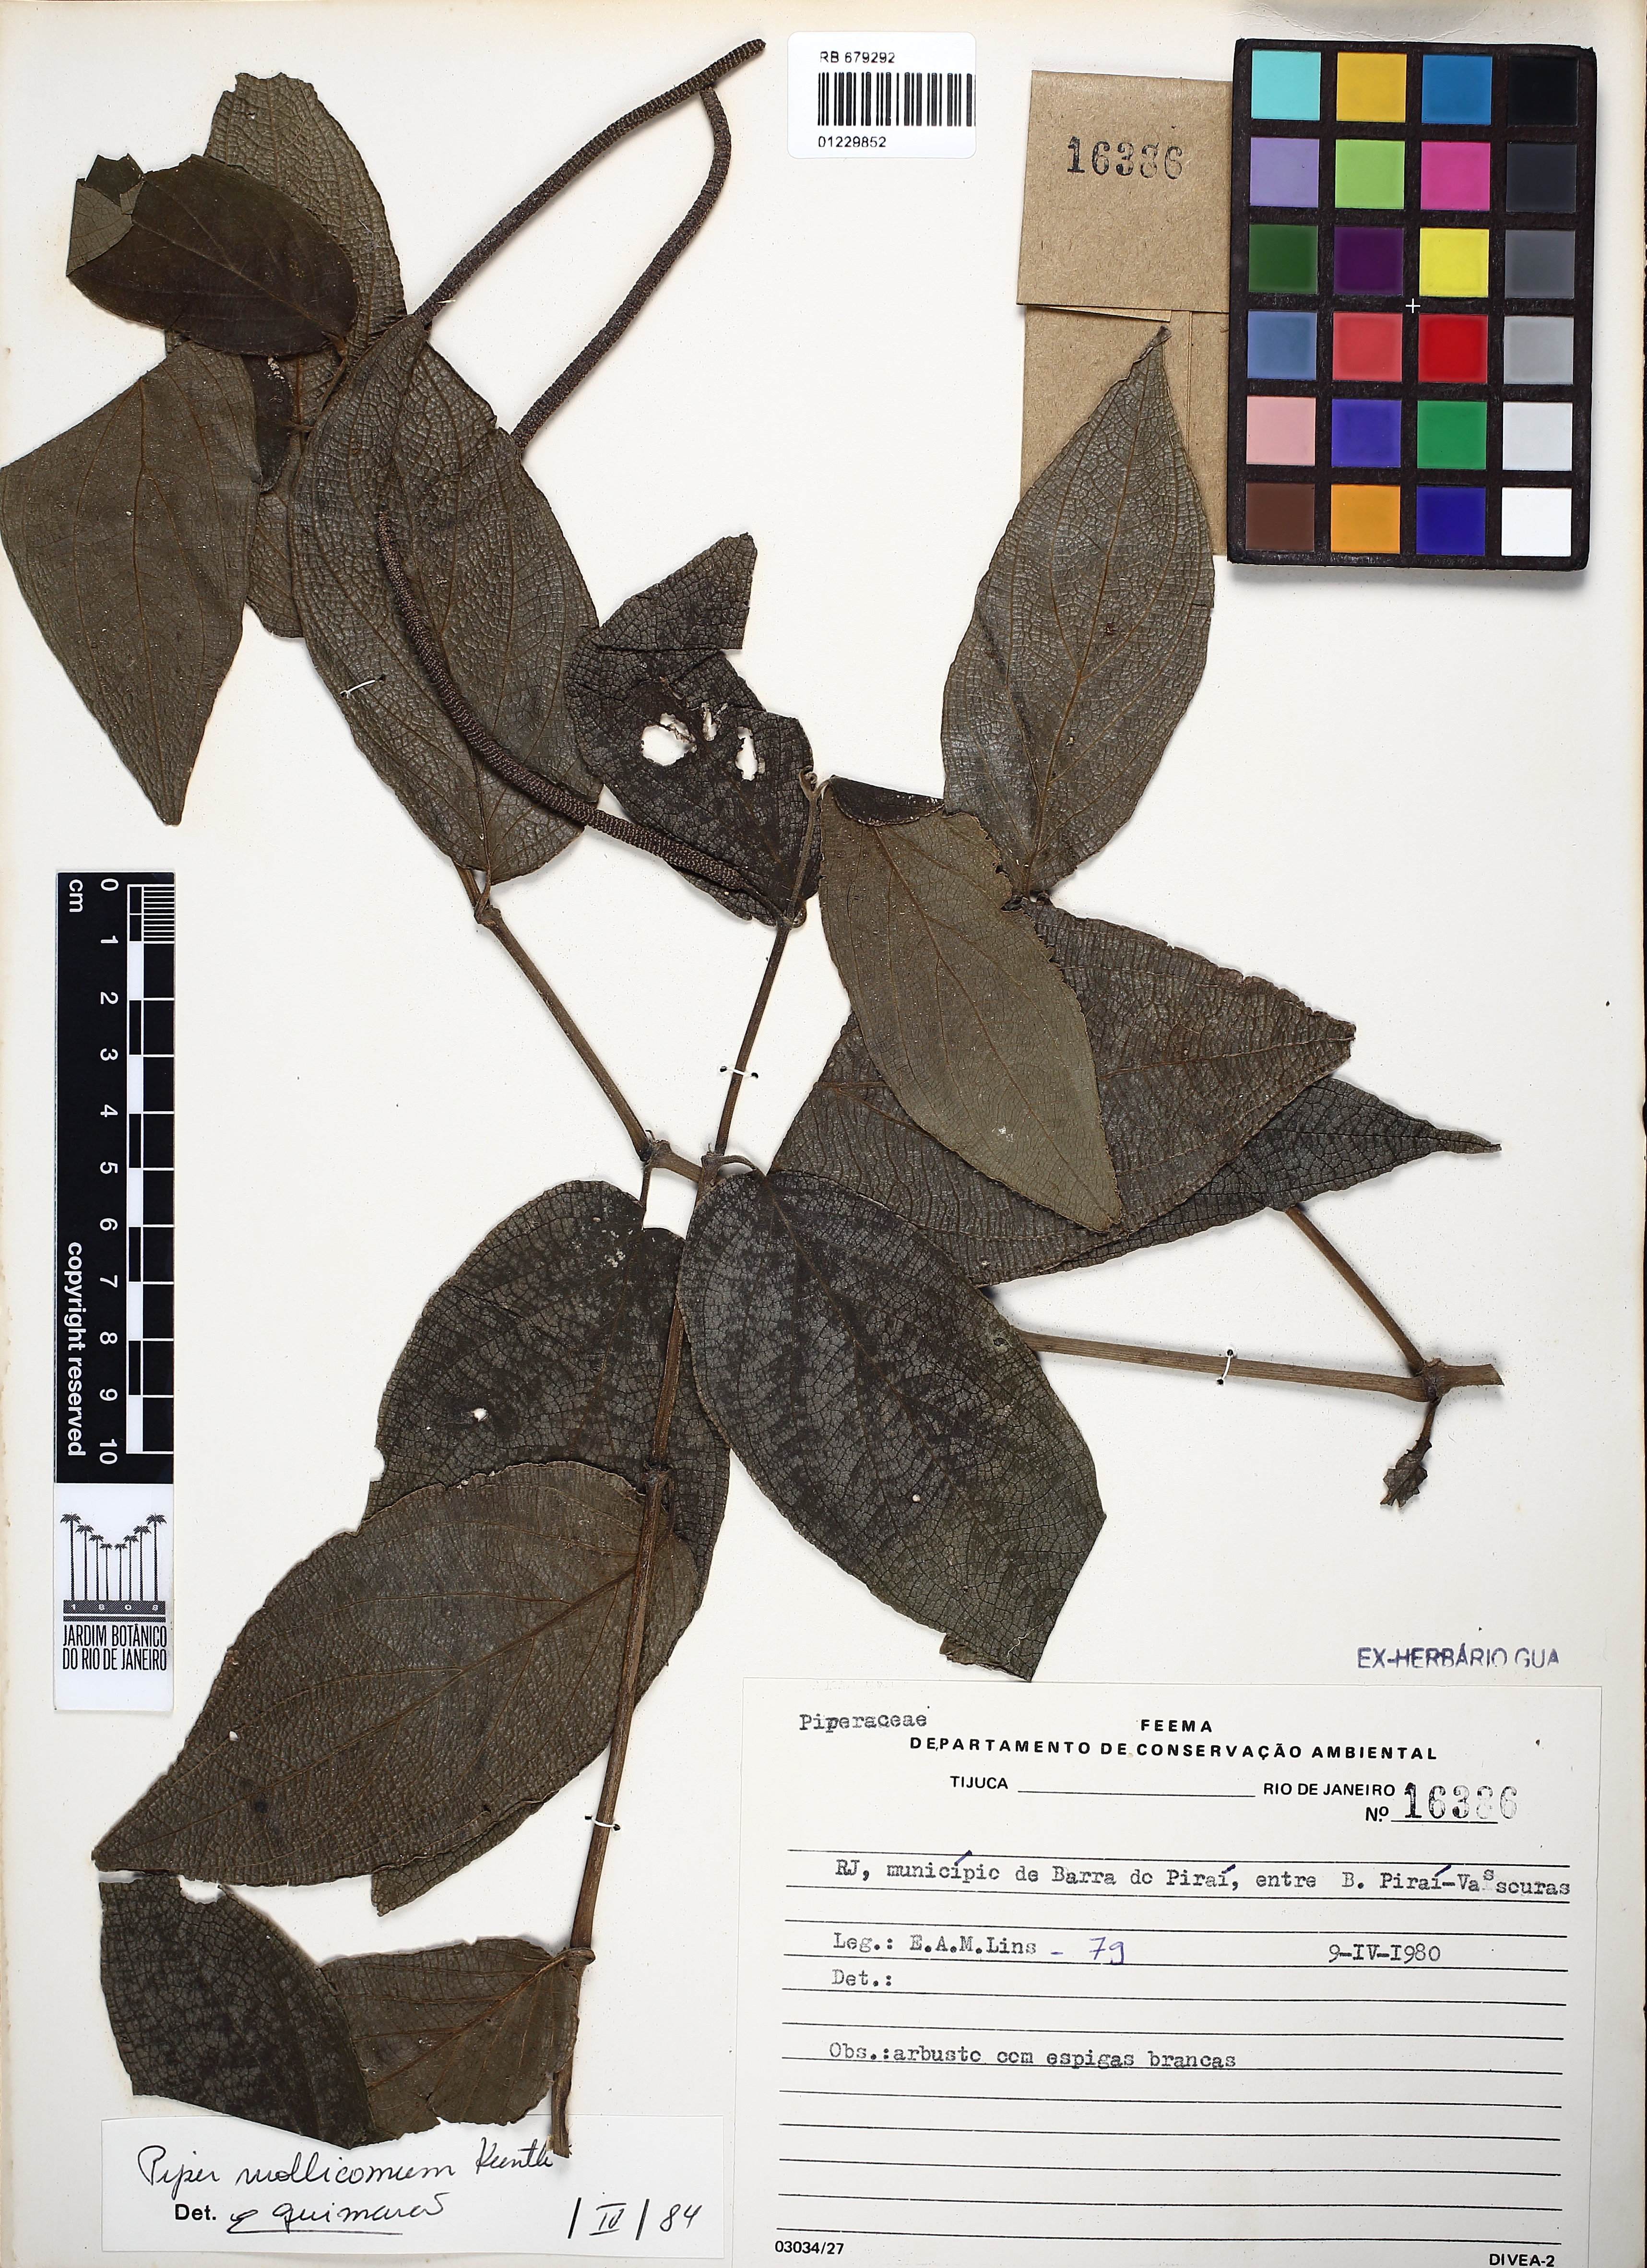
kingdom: Plantae
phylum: Tracheophyta
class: Magnoliopsida
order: Piperales
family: Piperaceae
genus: Piper
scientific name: Piper mollicomum
